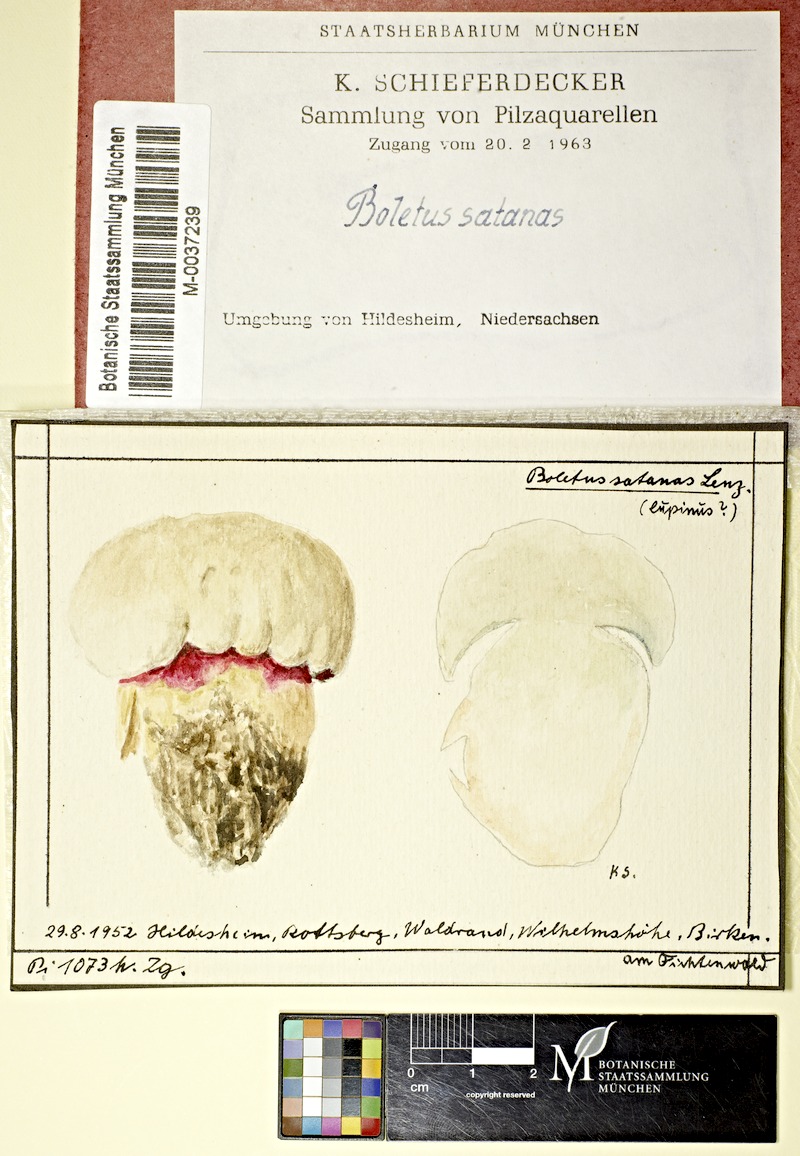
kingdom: Fungi
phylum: Basidiomycota
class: Agaricomycetes
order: Boletales
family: Boletaceae
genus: Rubroboletus
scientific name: Rubroboletus satanas
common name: Devil's bolete
